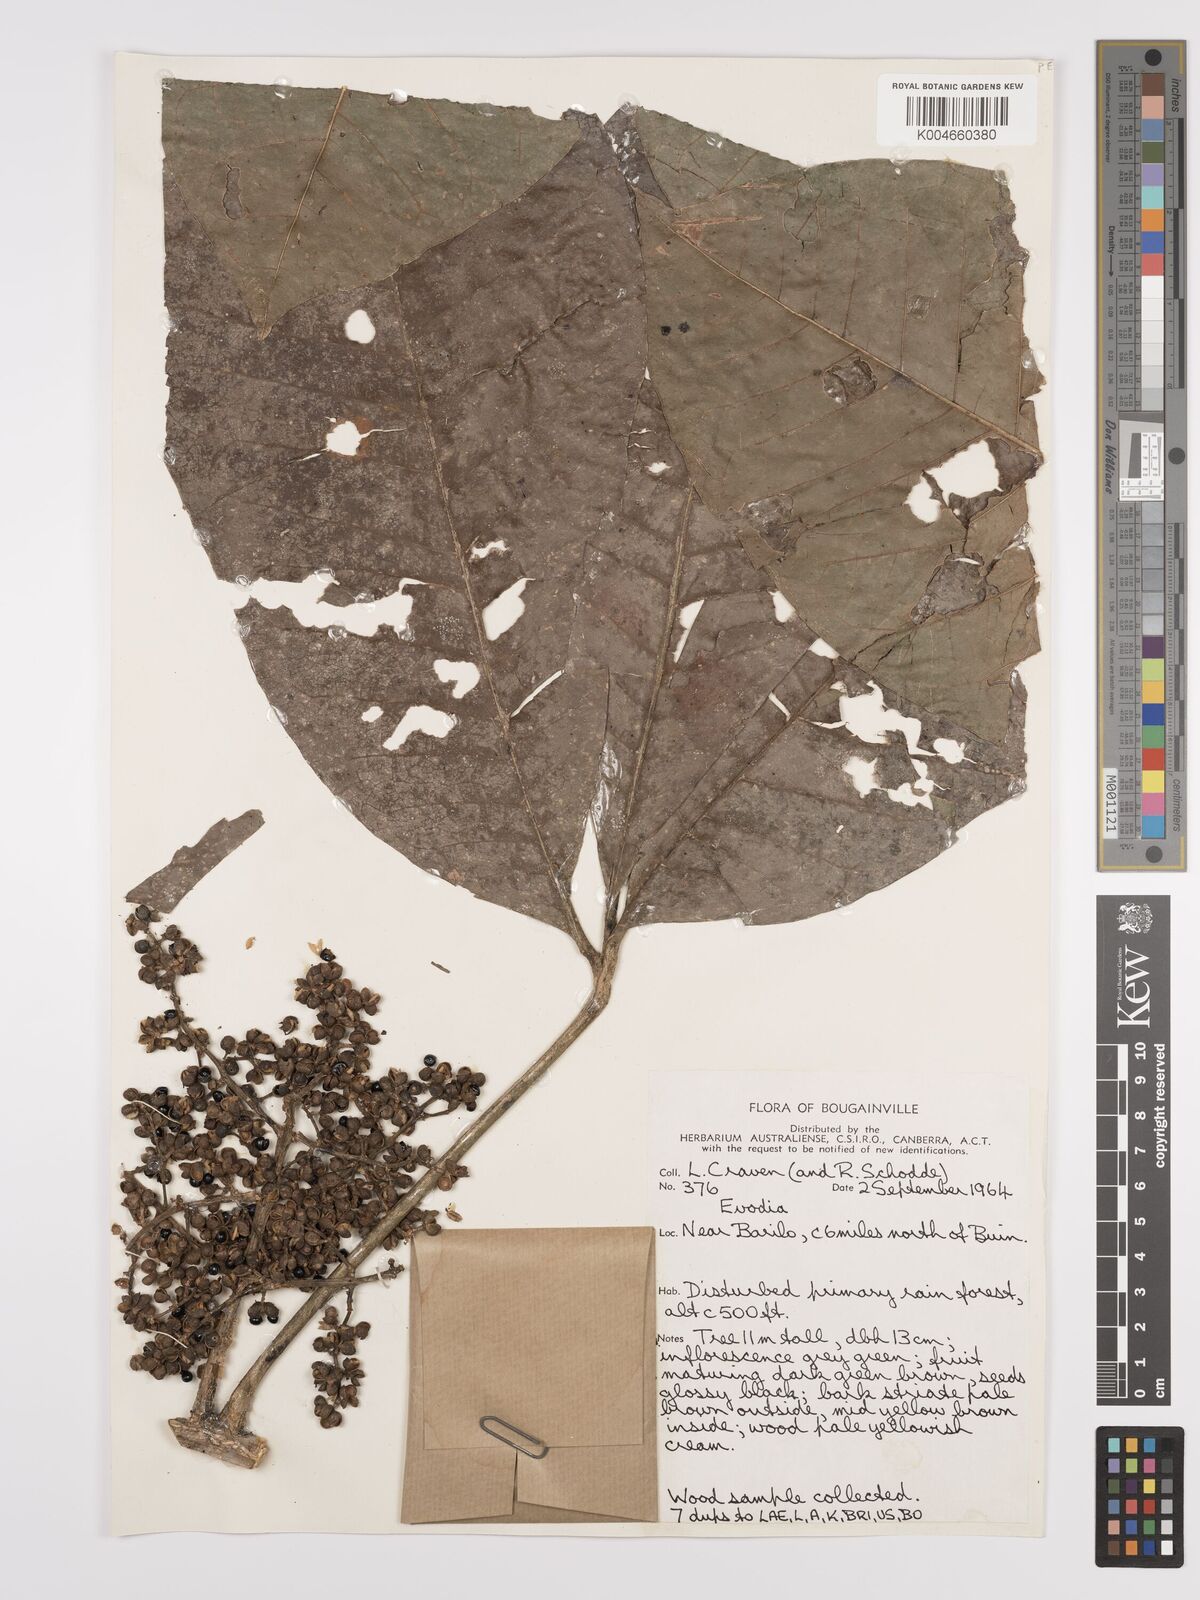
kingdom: Plantae
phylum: Tracheophyta
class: Magnoliopsida
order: Sapindales
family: Rutaceae
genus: Euodia
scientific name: Euodia
